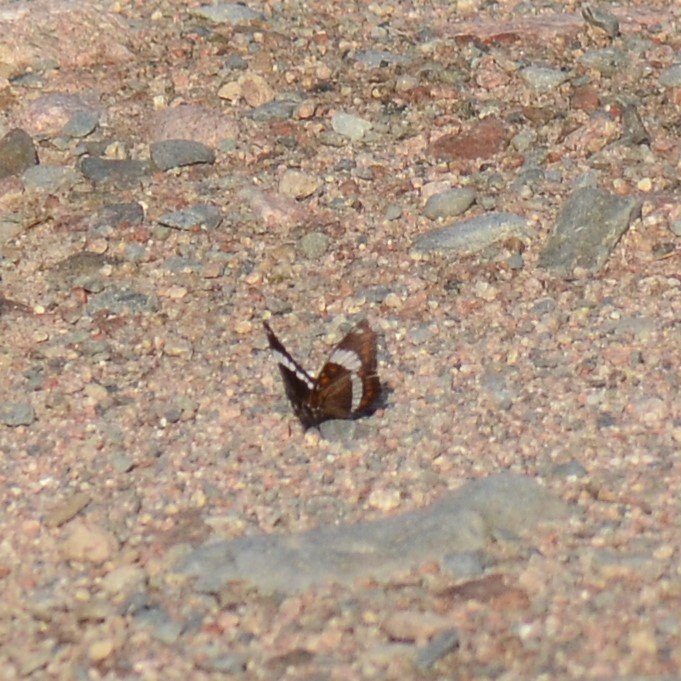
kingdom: Animalia
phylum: Arthropoda
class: Insecta
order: Lepidoptera
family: Nymphalidae
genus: Limenitis
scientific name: Limenitis arthemis
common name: Red-spotted Admiral
